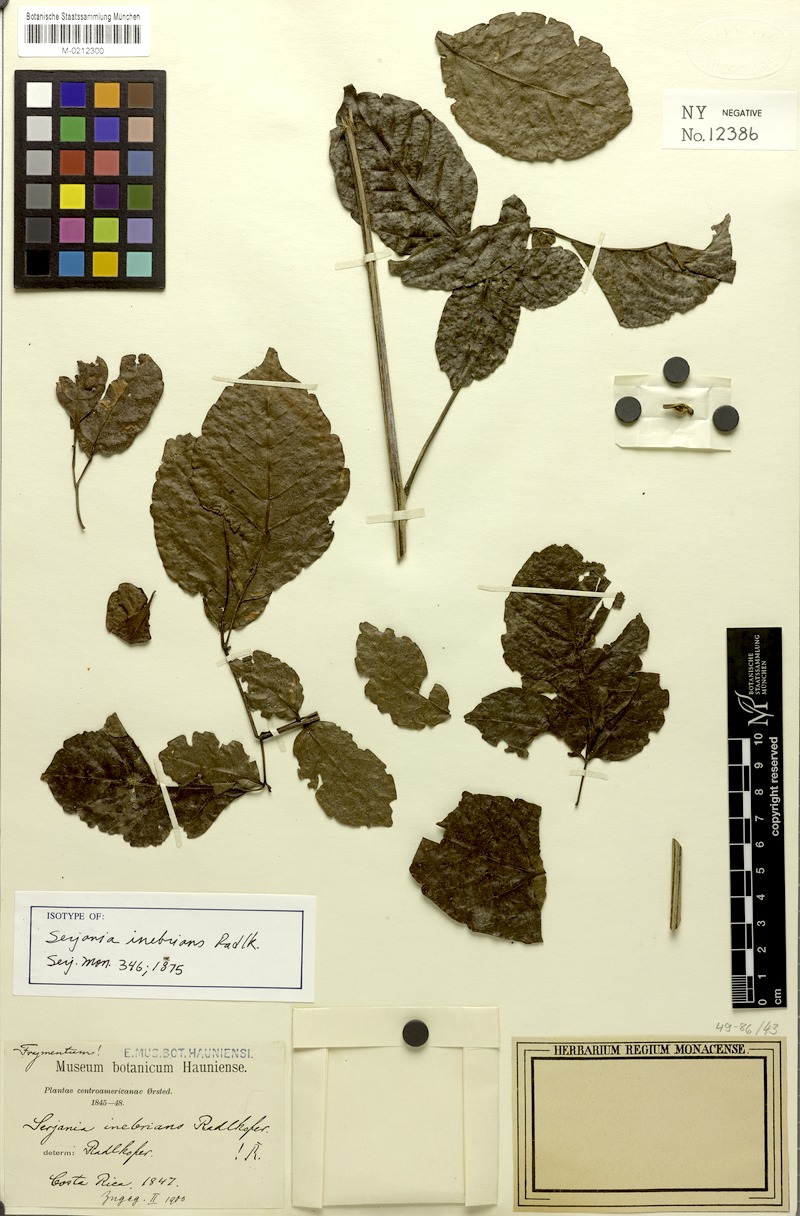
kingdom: Plantae
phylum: Tracheophyta
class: Magnoliopsida
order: Sapindales
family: Sapindaceae
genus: Serjania
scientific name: Serjania inebrians
